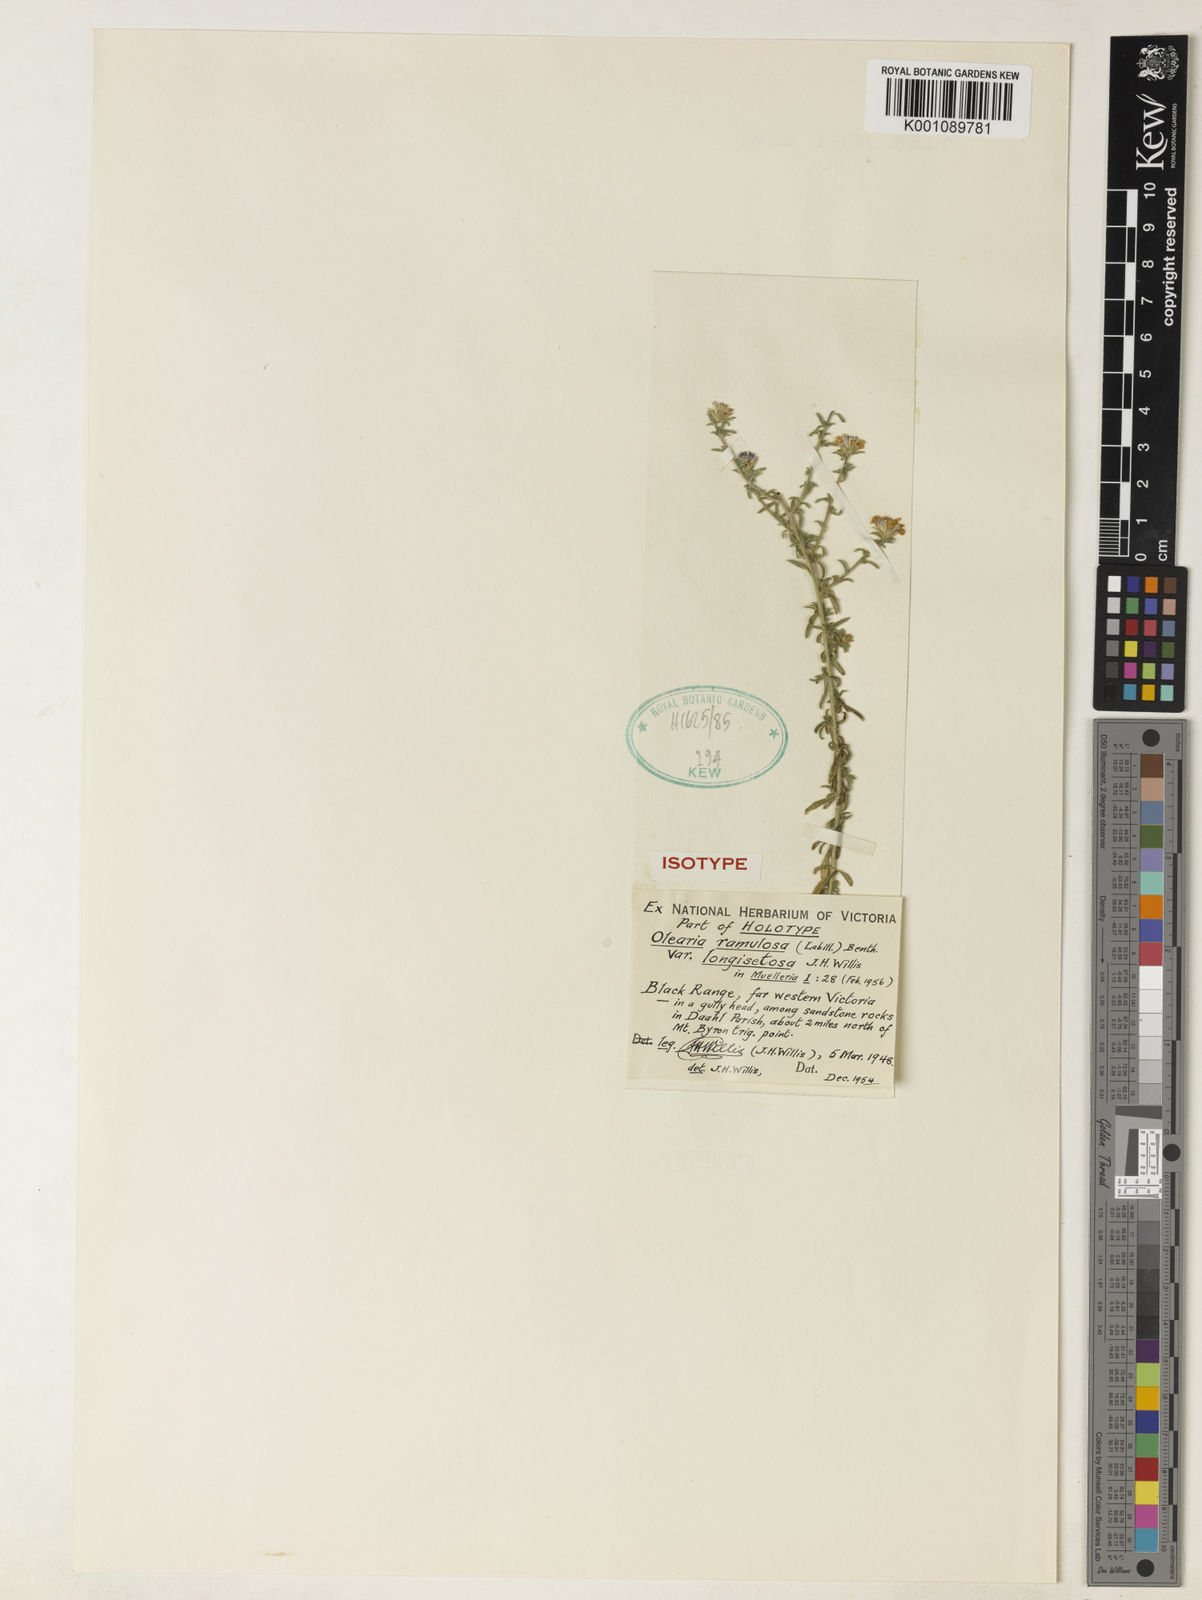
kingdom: Plantae
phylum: Tracheophyta
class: Magnoliopsida
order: Asterales
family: Asteraceae
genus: Olearia
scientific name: Olearia stricta
